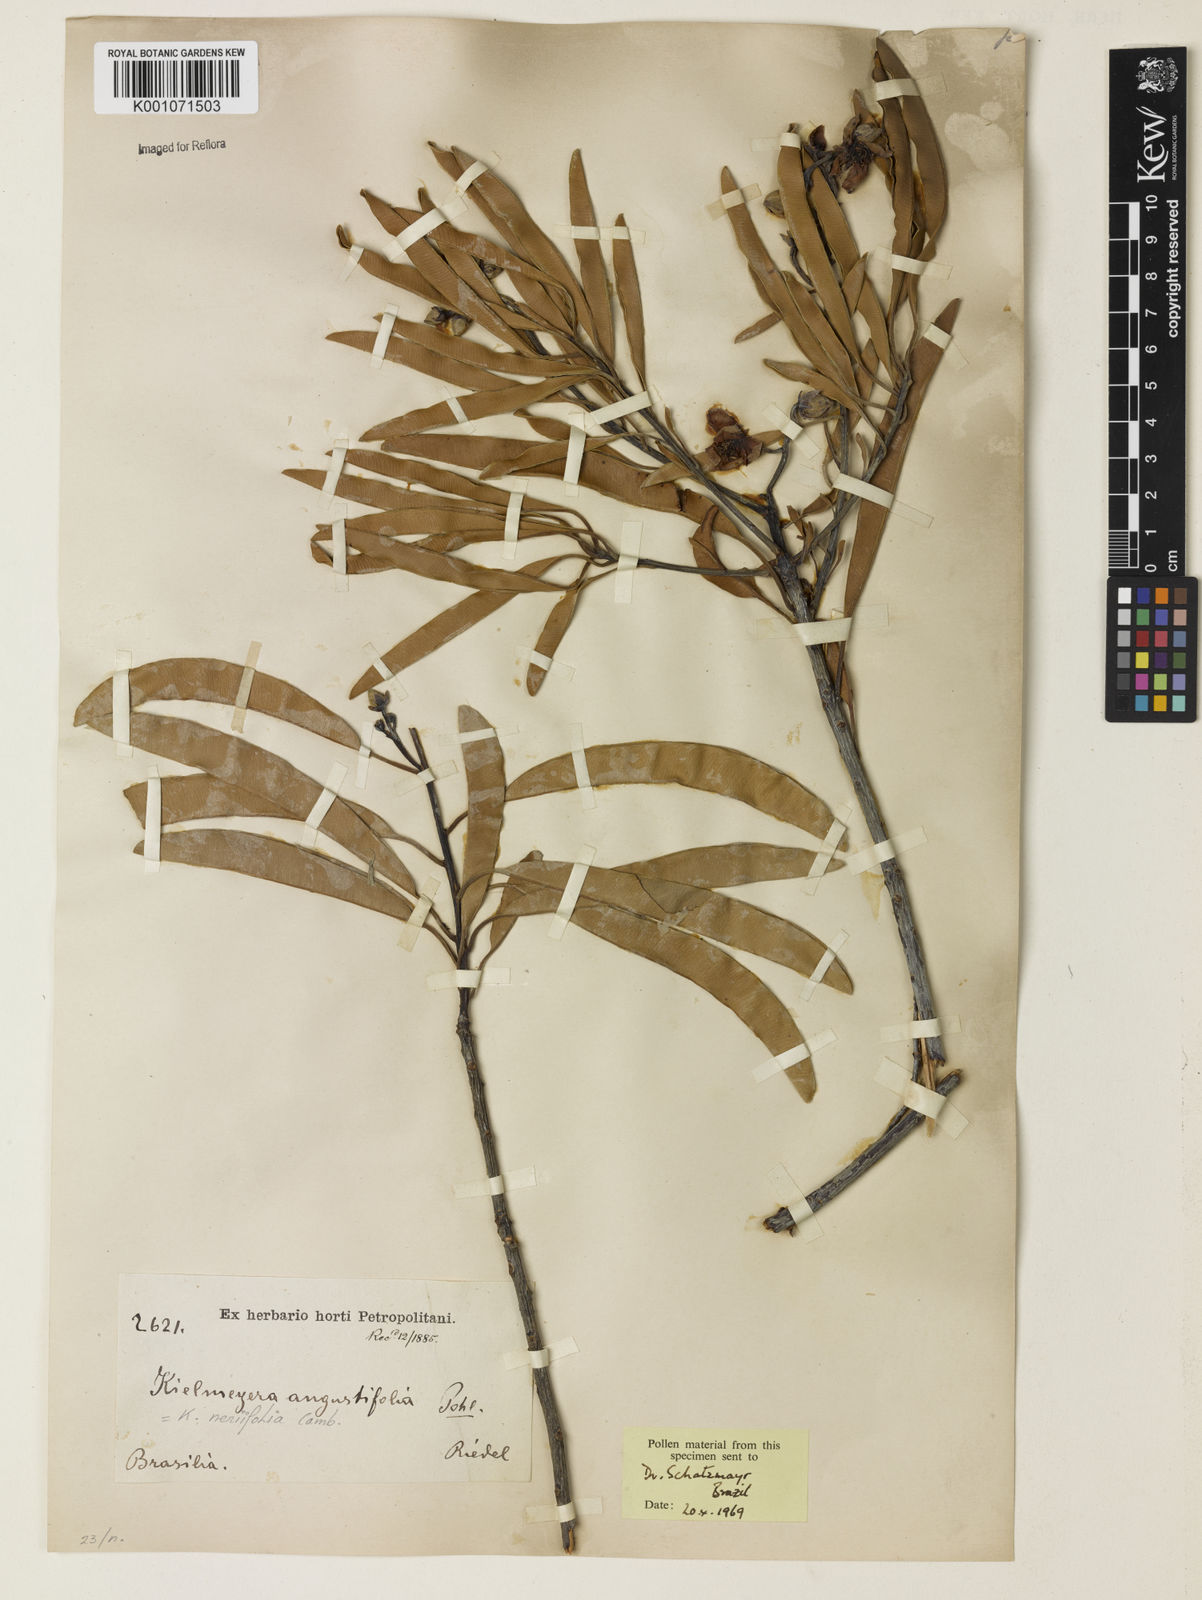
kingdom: Plantae
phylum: Tracheophyta
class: Magnoliopsida
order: Malpighiales
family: Calophyllaceae
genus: Kielmeyera
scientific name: Kielmeyera neriifolia
